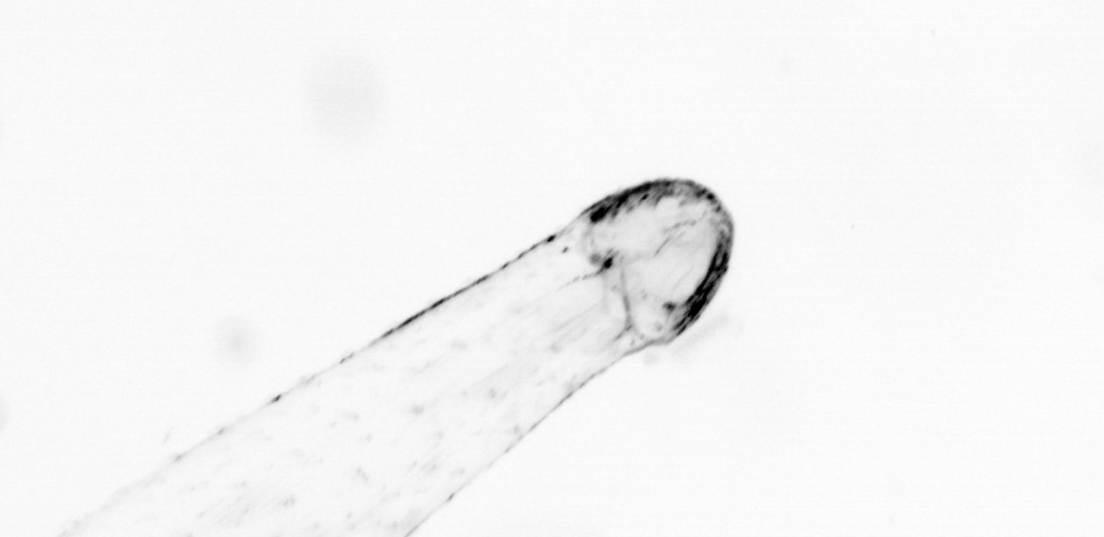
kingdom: Animalia
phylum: Chaetognatha
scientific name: Chaetognatha
